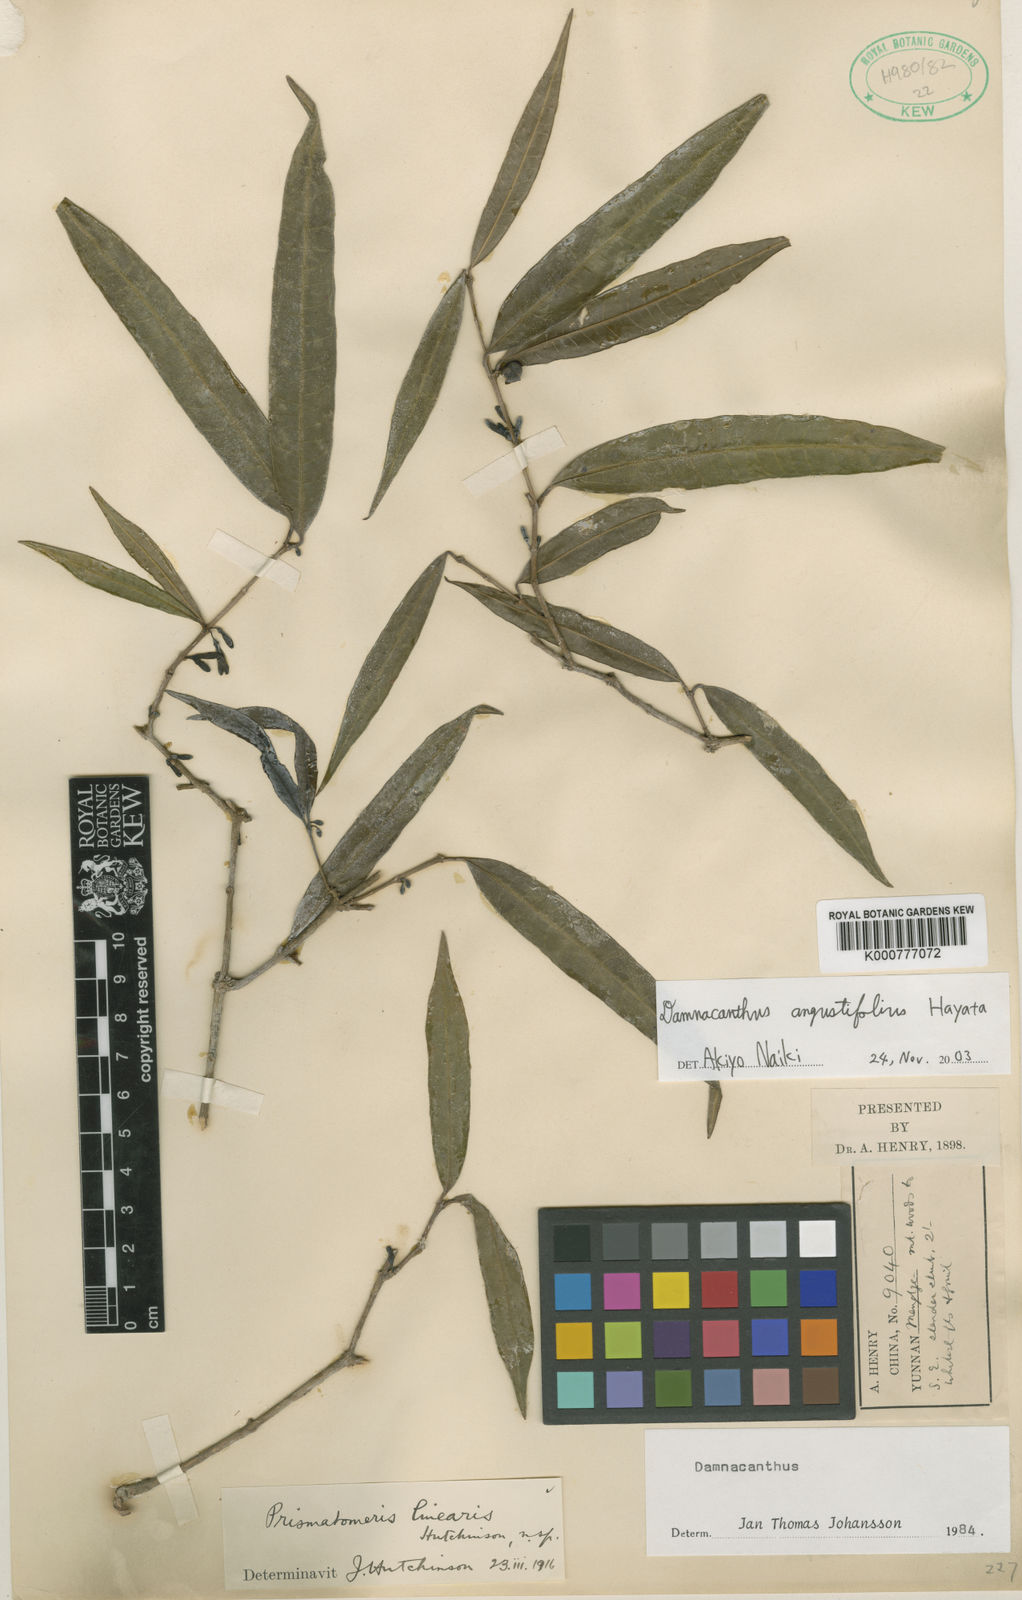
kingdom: Plantae
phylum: Tracheophyta
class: Magnoliopsida
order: Gentianales
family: Rubiaceae
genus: Damnacanthus
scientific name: Damnacanthus
